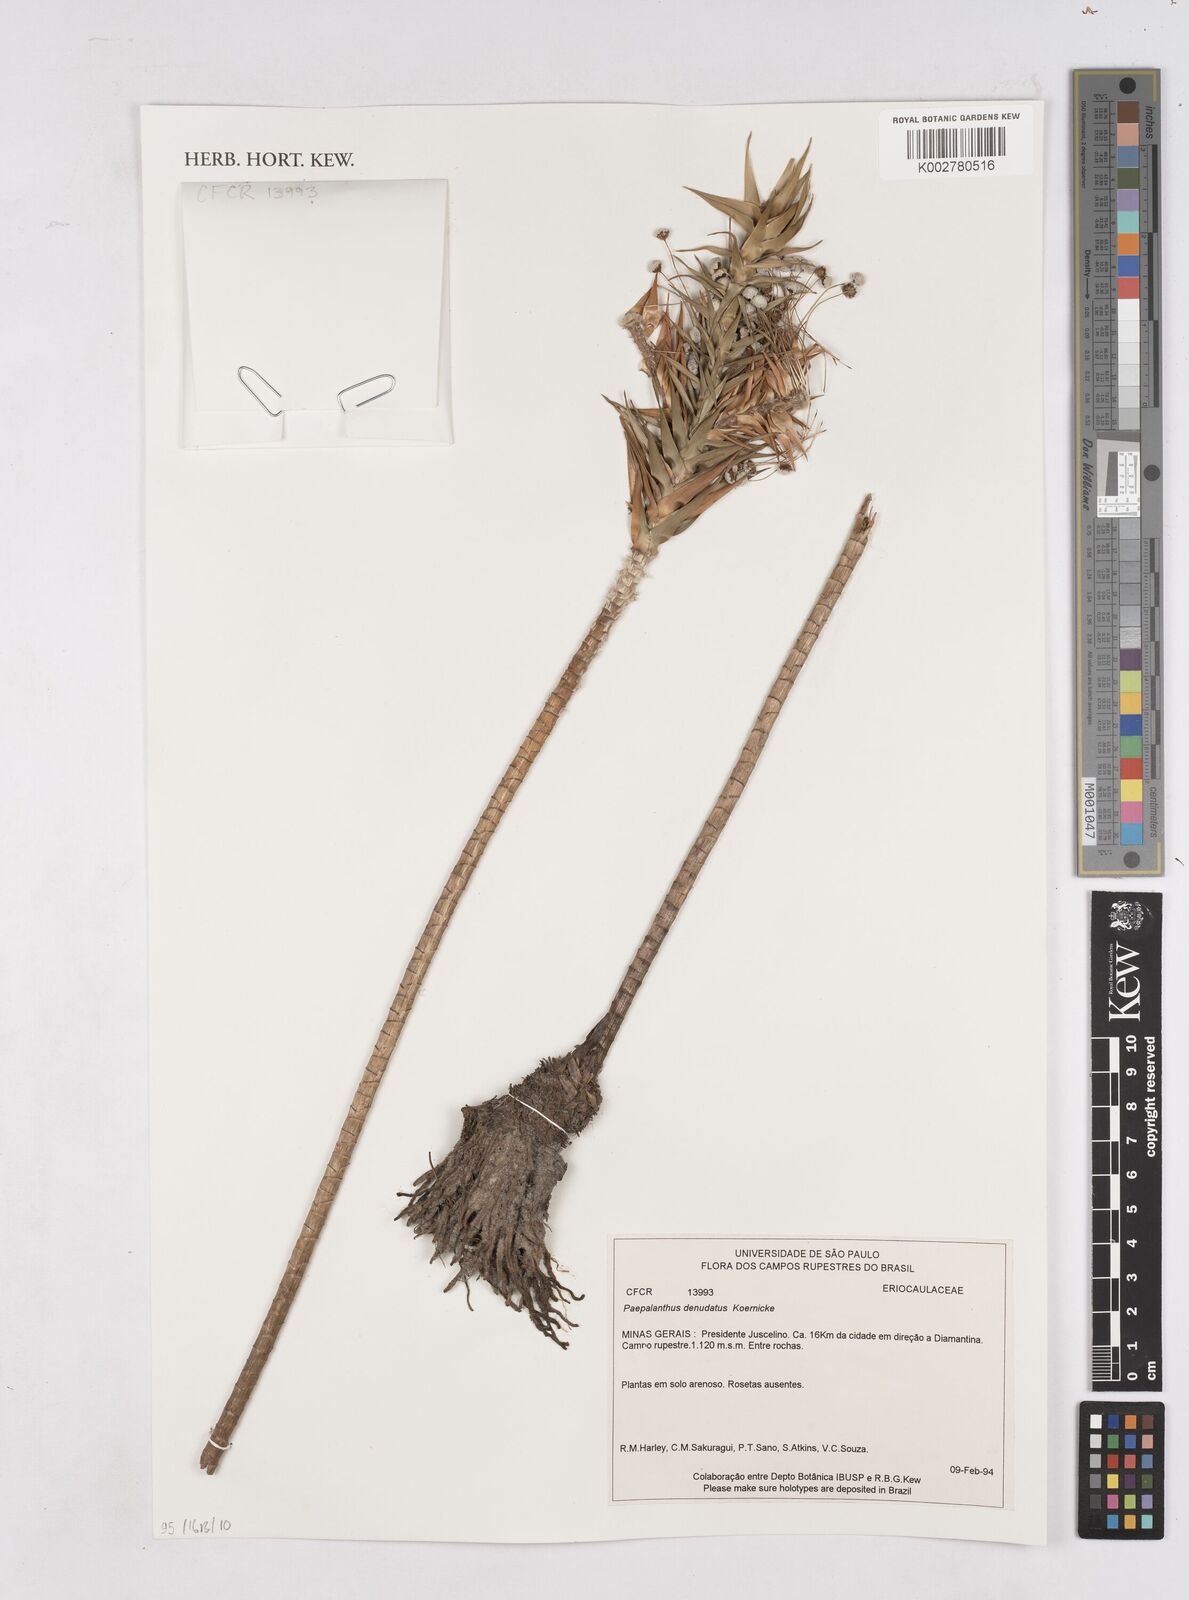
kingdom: Plantae
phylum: Tracheophyta
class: Liliopsida
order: Poales
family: Eriocaulaceae
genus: Paepalanthus
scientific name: Paepalanthus denudatus
